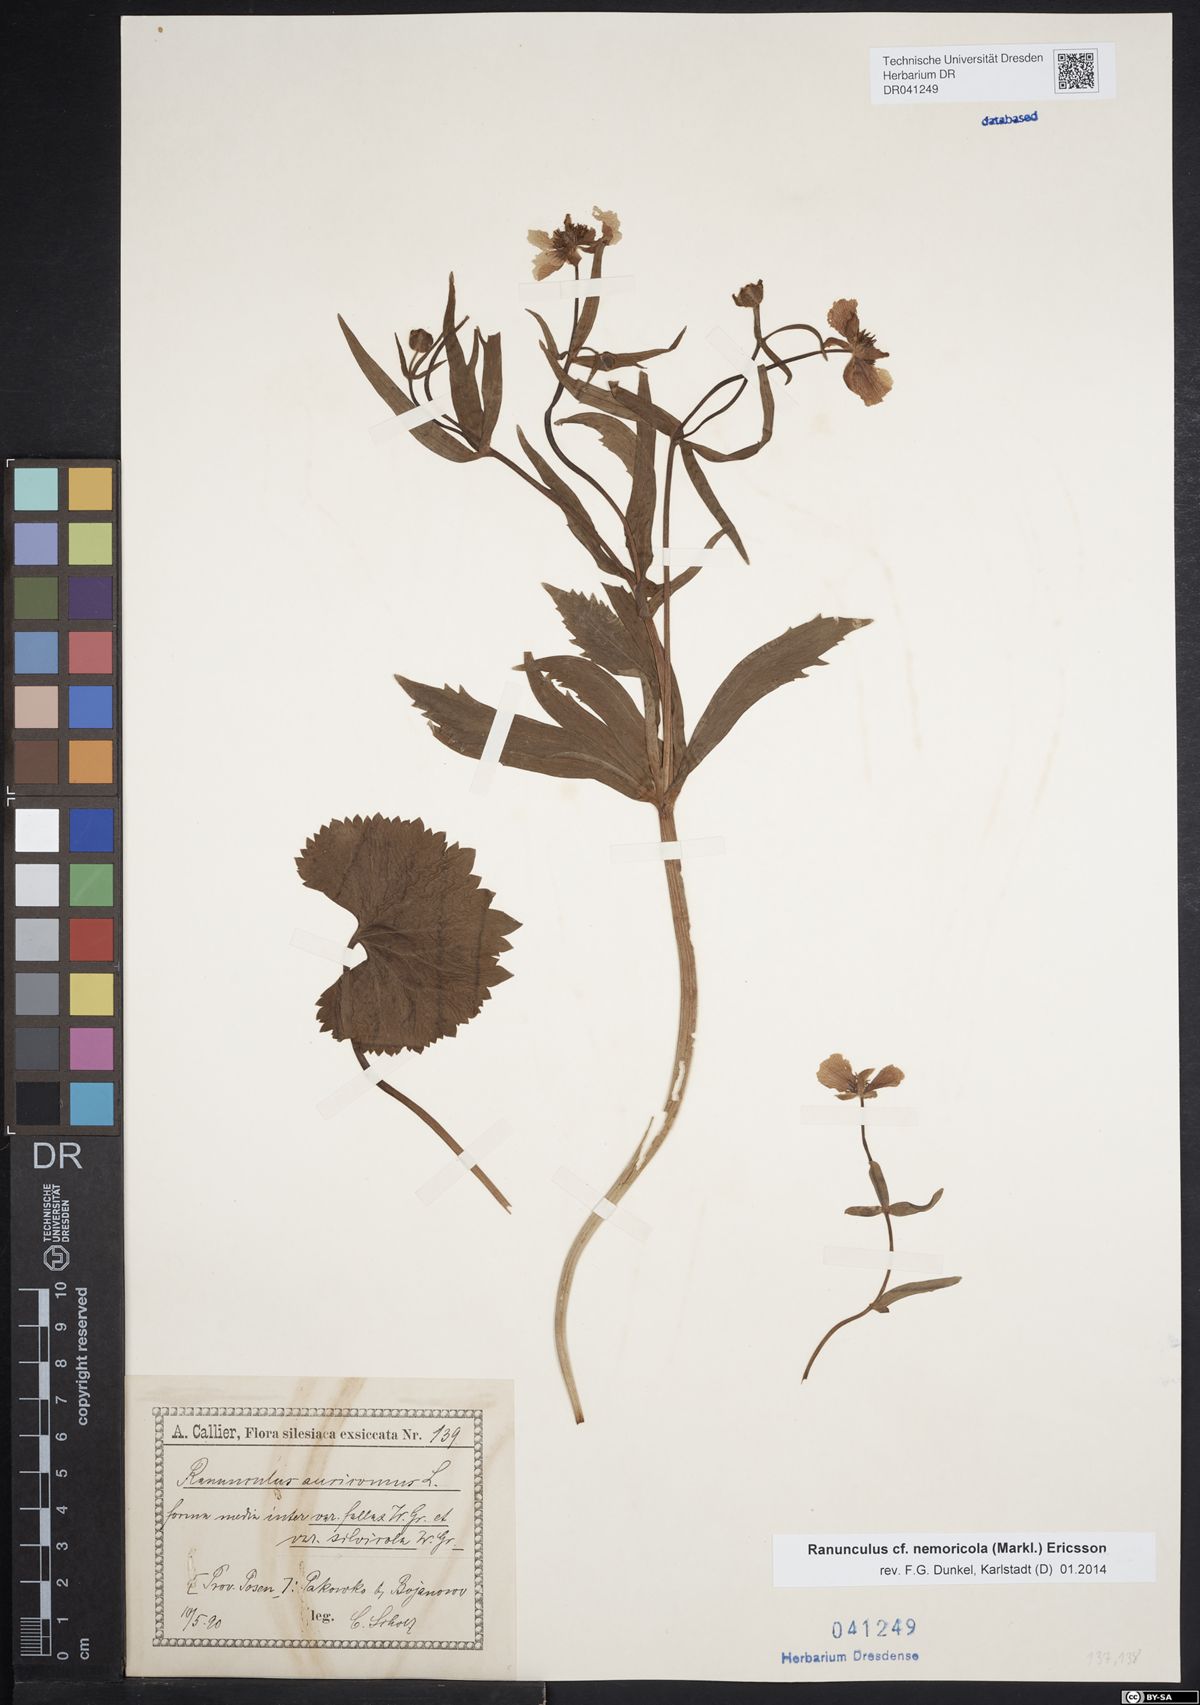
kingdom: Plantae
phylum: Tracheophyta
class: Magnoliopsida
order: Ranunculales
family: Ranunculaceae
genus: Ranunculus
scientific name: Ranunculus nemoricola
